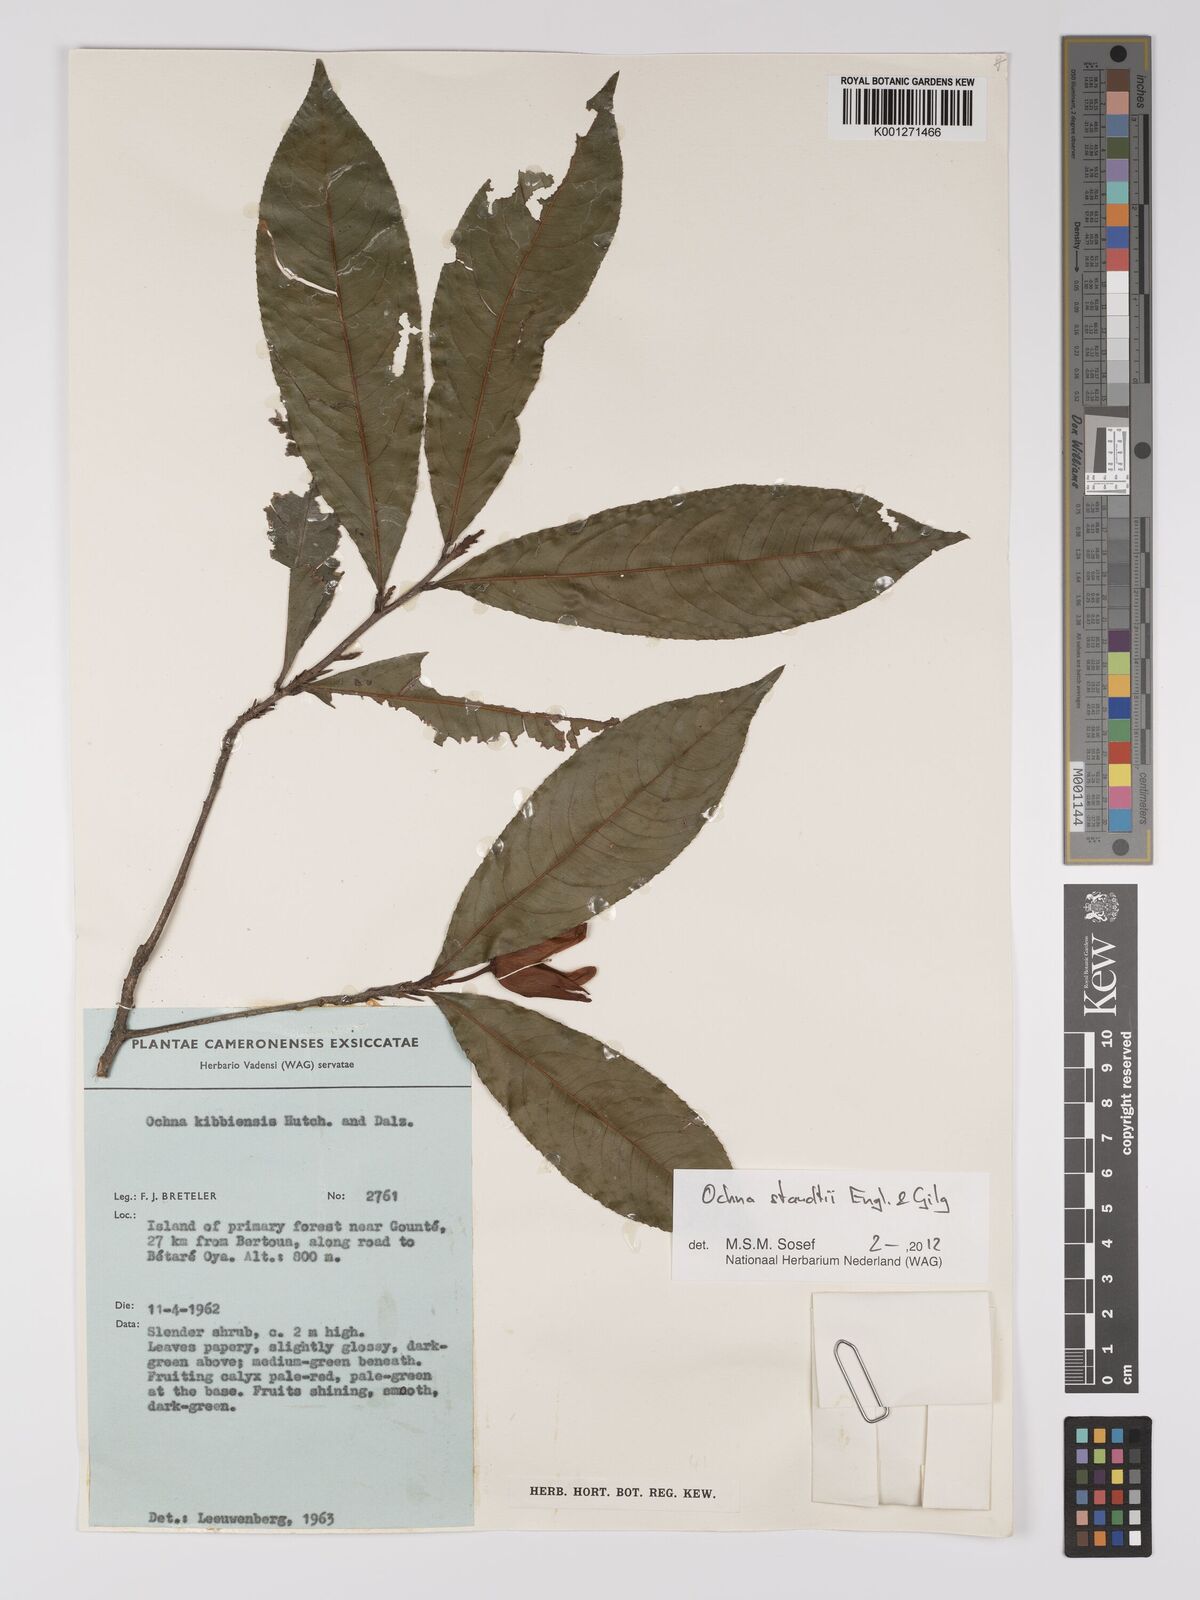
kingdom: Plantae
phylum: Tracheophyta
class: Magnoliopsida
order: Malpighiales
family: Ochnaceae
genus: Ochna
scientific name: Ochna staudtii
